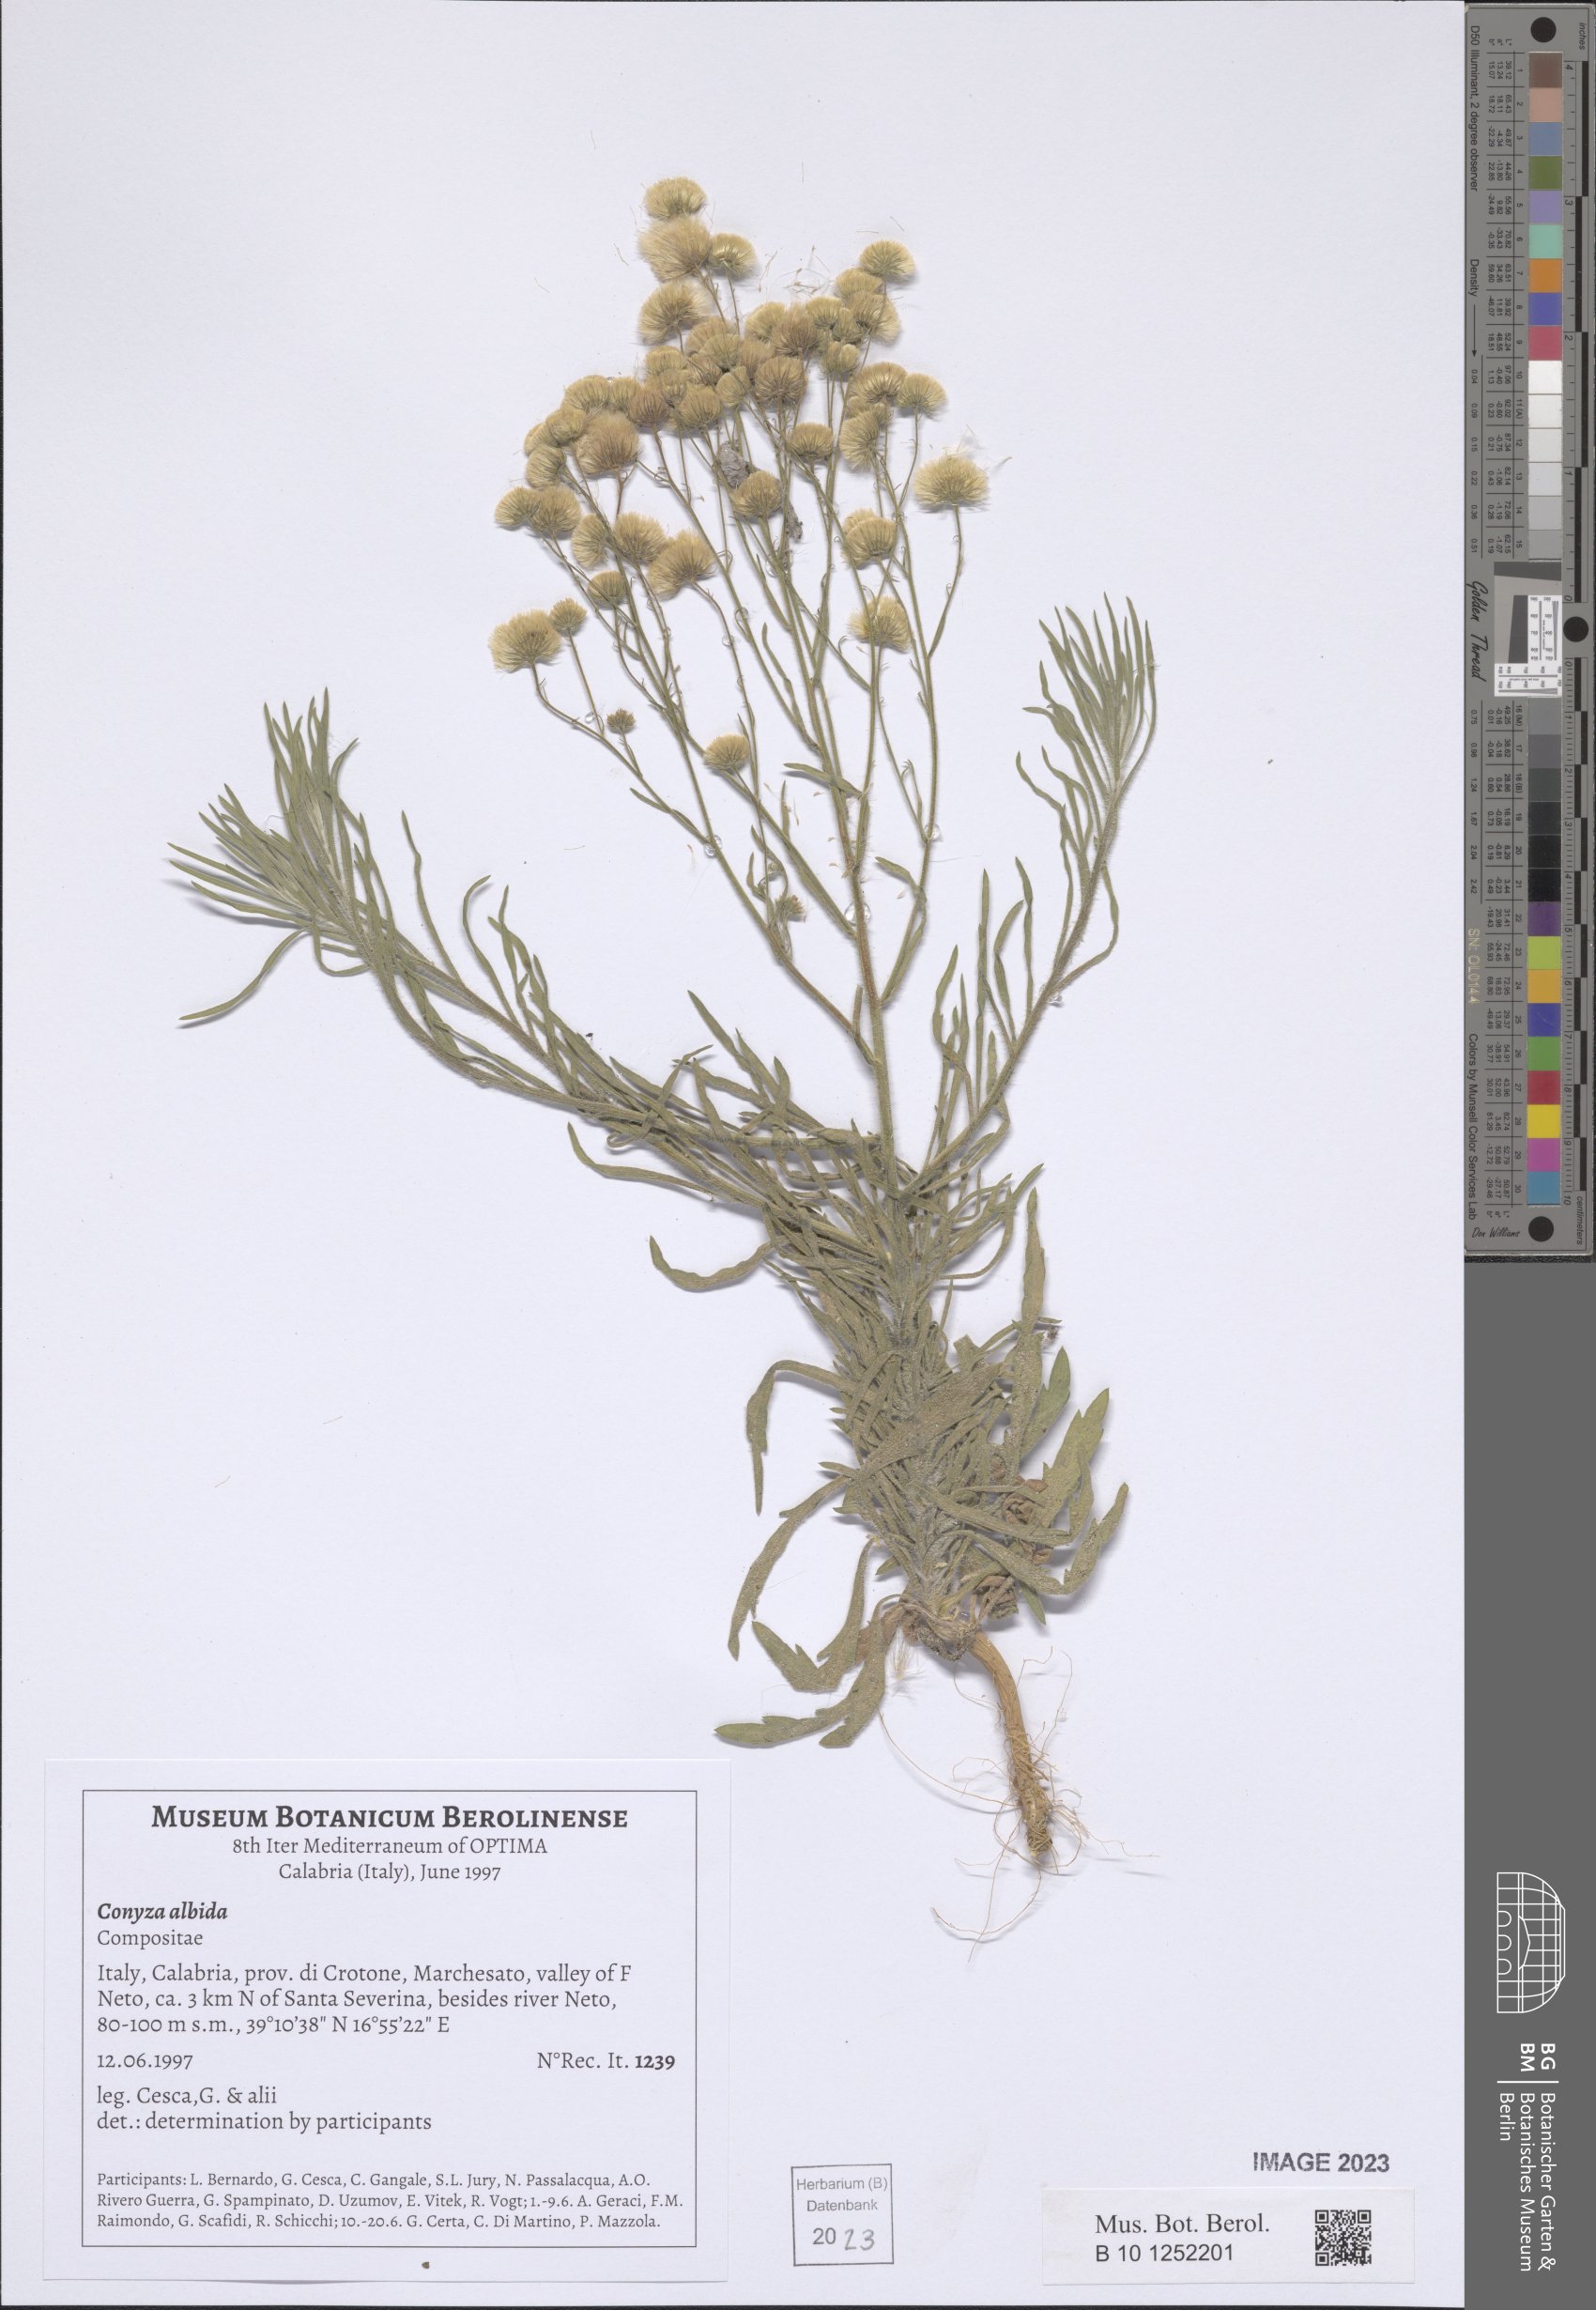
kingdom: Plantae
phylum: Tracheophyta
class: Magnoliopsida
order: Asterales
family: Asteraceae
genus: Erigeron
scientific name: Erigeron floribundus
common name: Bilbao fleabane
